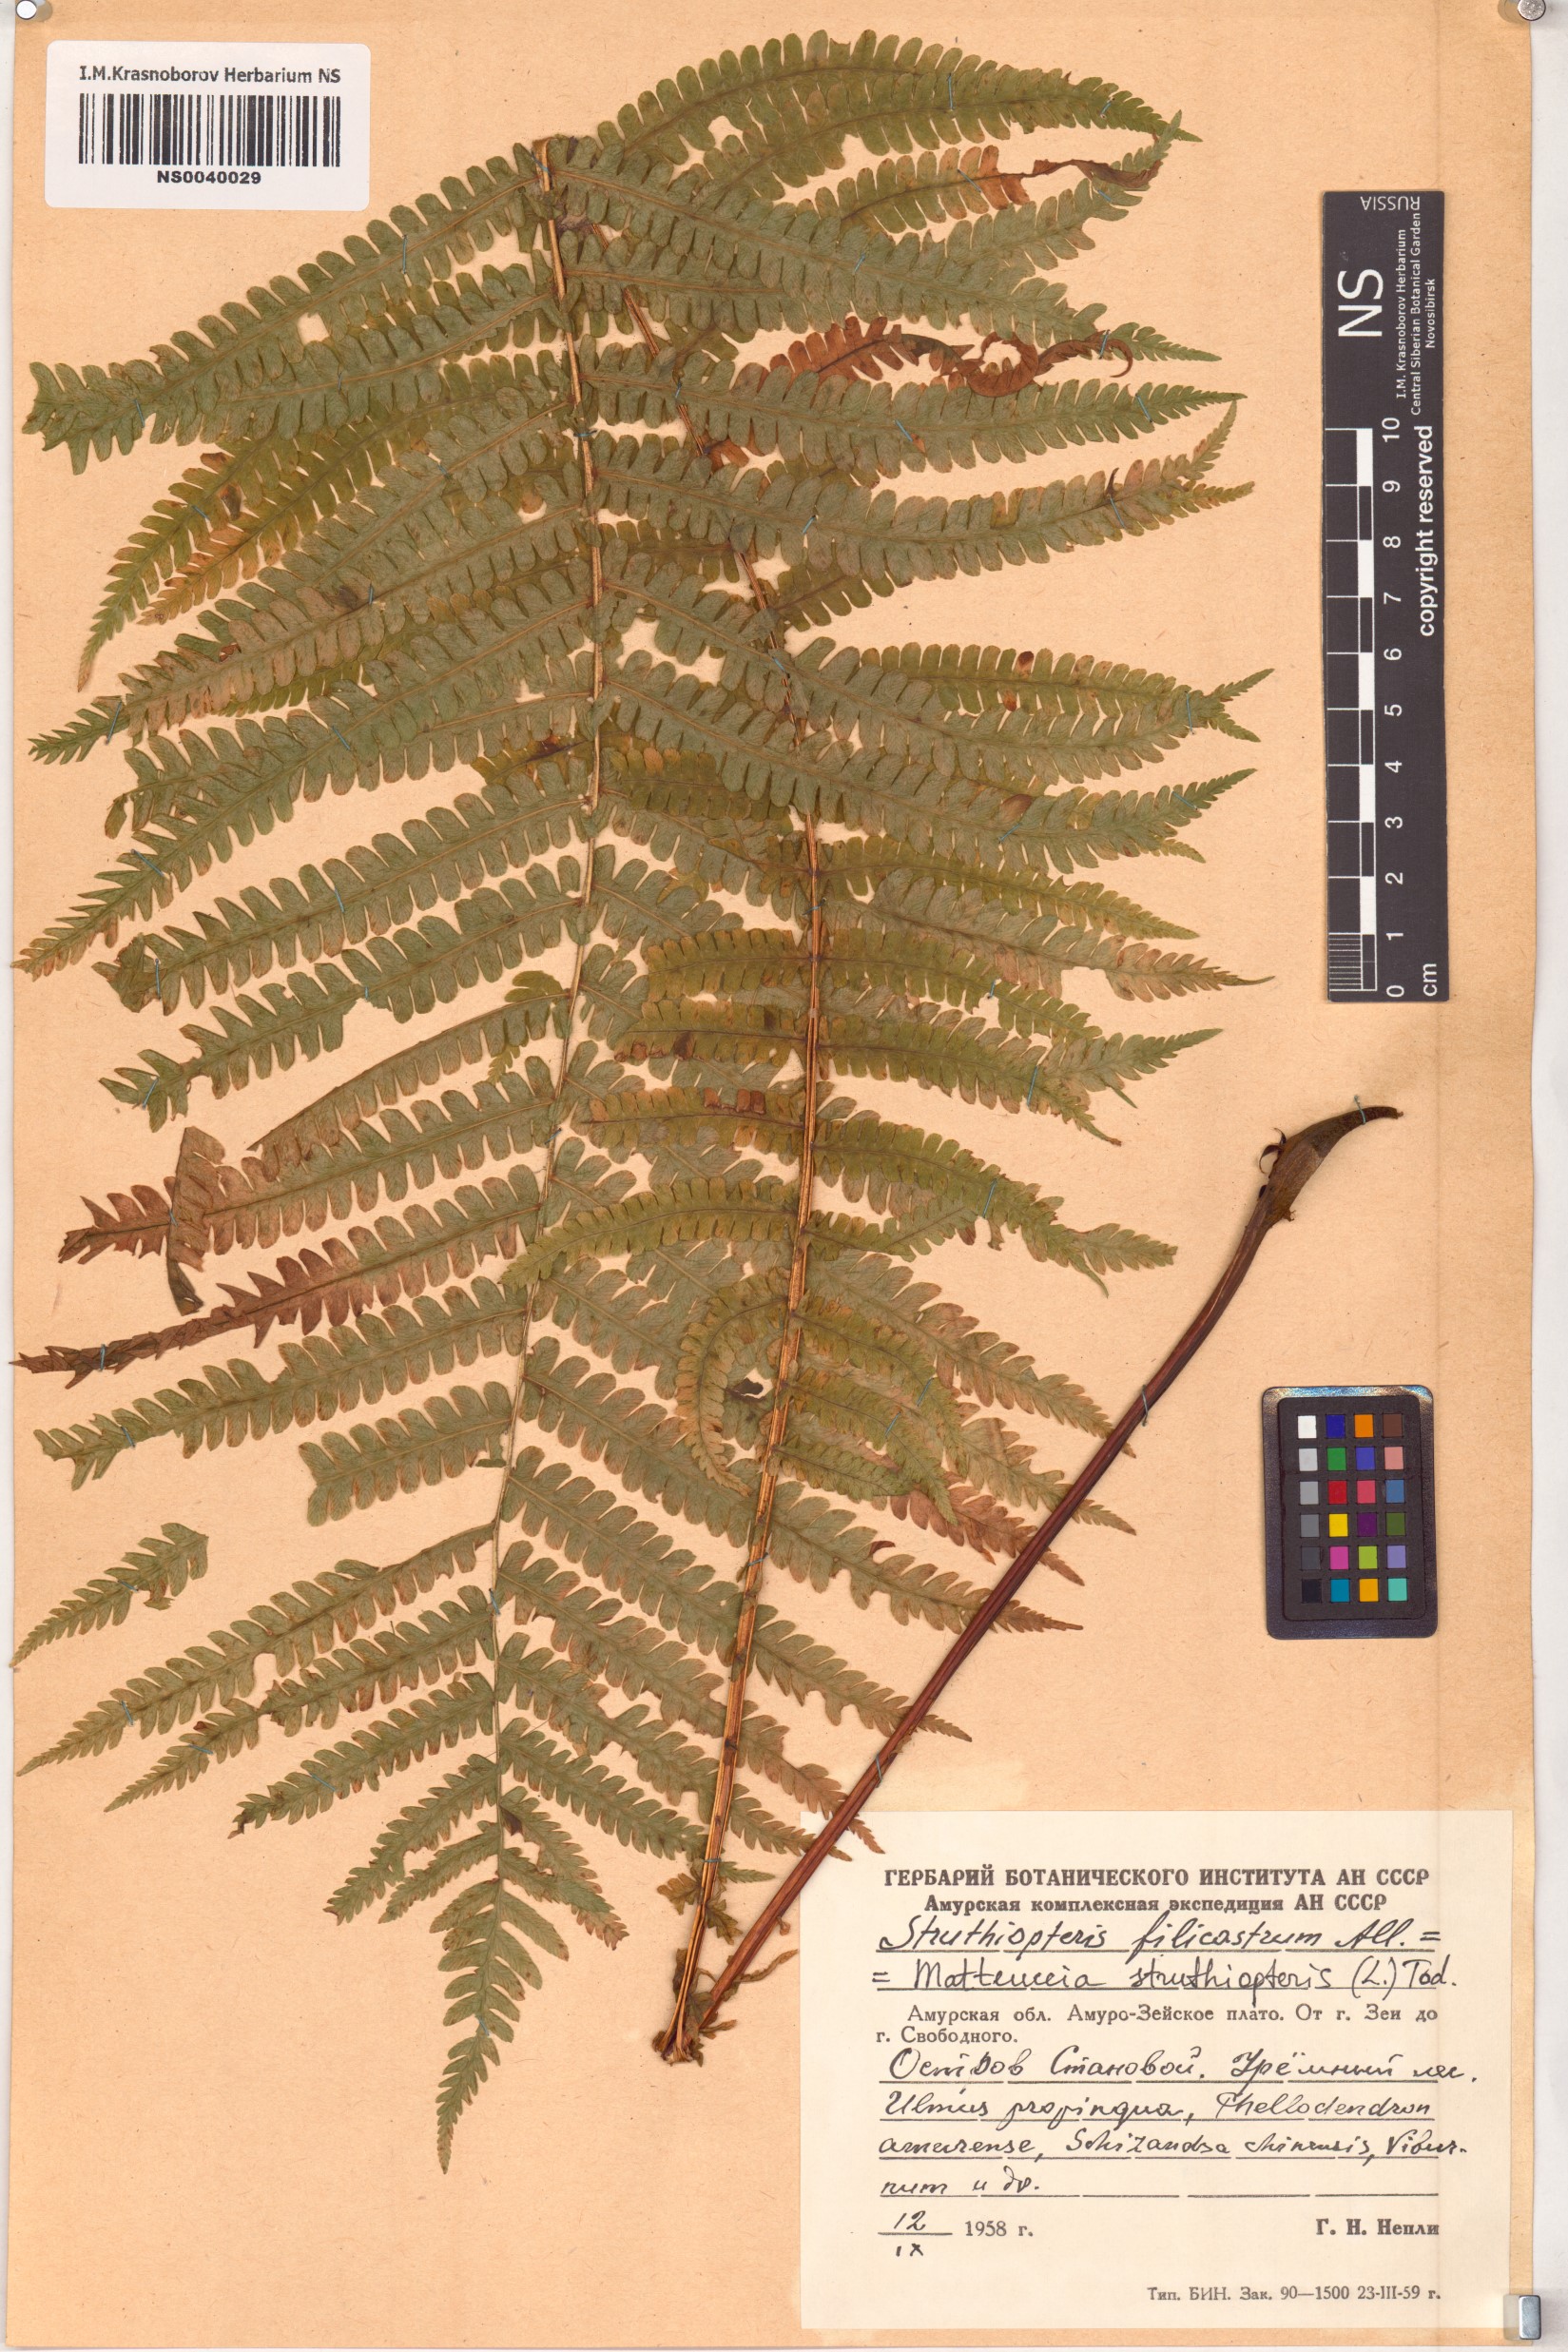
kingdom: Plantae
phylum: Tracheophyta
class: Polypodiopsida
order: Polypodiales
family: Onocleaceae
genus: Matteuccia
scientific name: Matteuccia struthiopteris
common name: Ostrich fern
